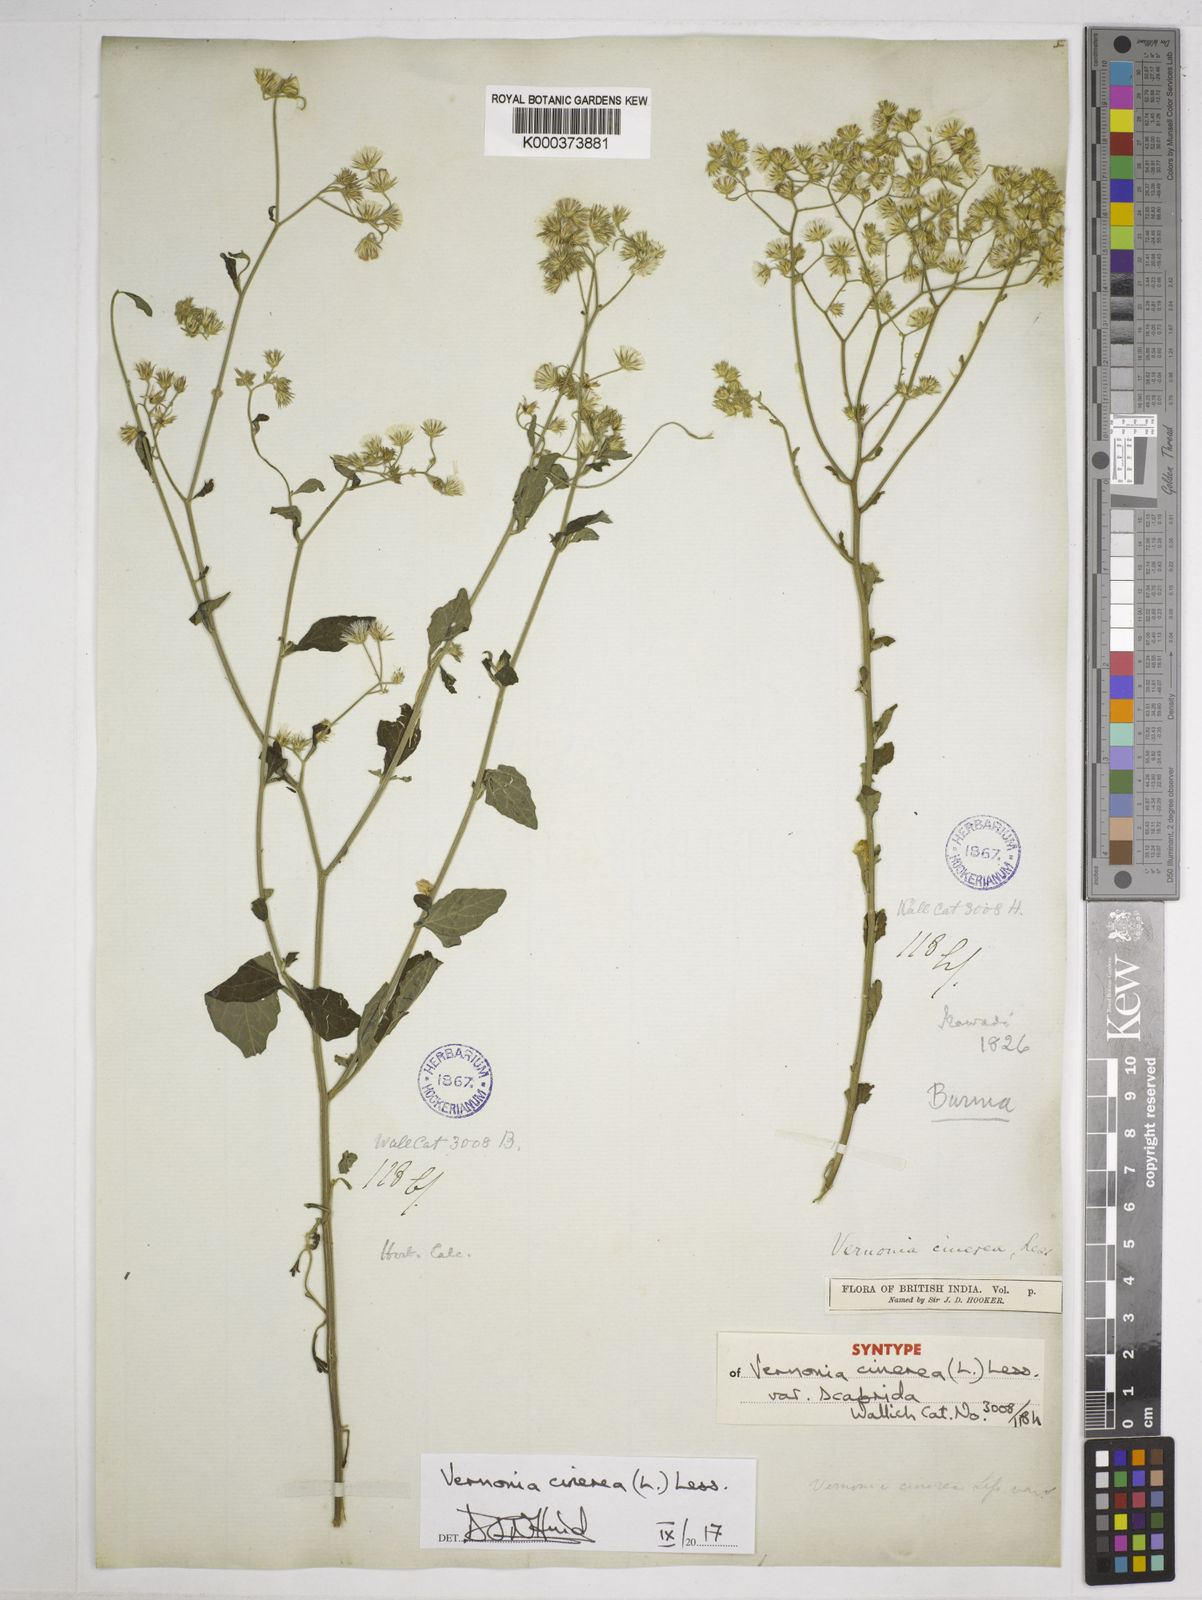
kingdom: Plantae
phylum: Tracheophyta
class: Magnoliopsida
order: Asterales
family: Asteraceae
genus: Cyanthillium
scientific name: Cyanthillium cinereum
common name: Little ironweed
